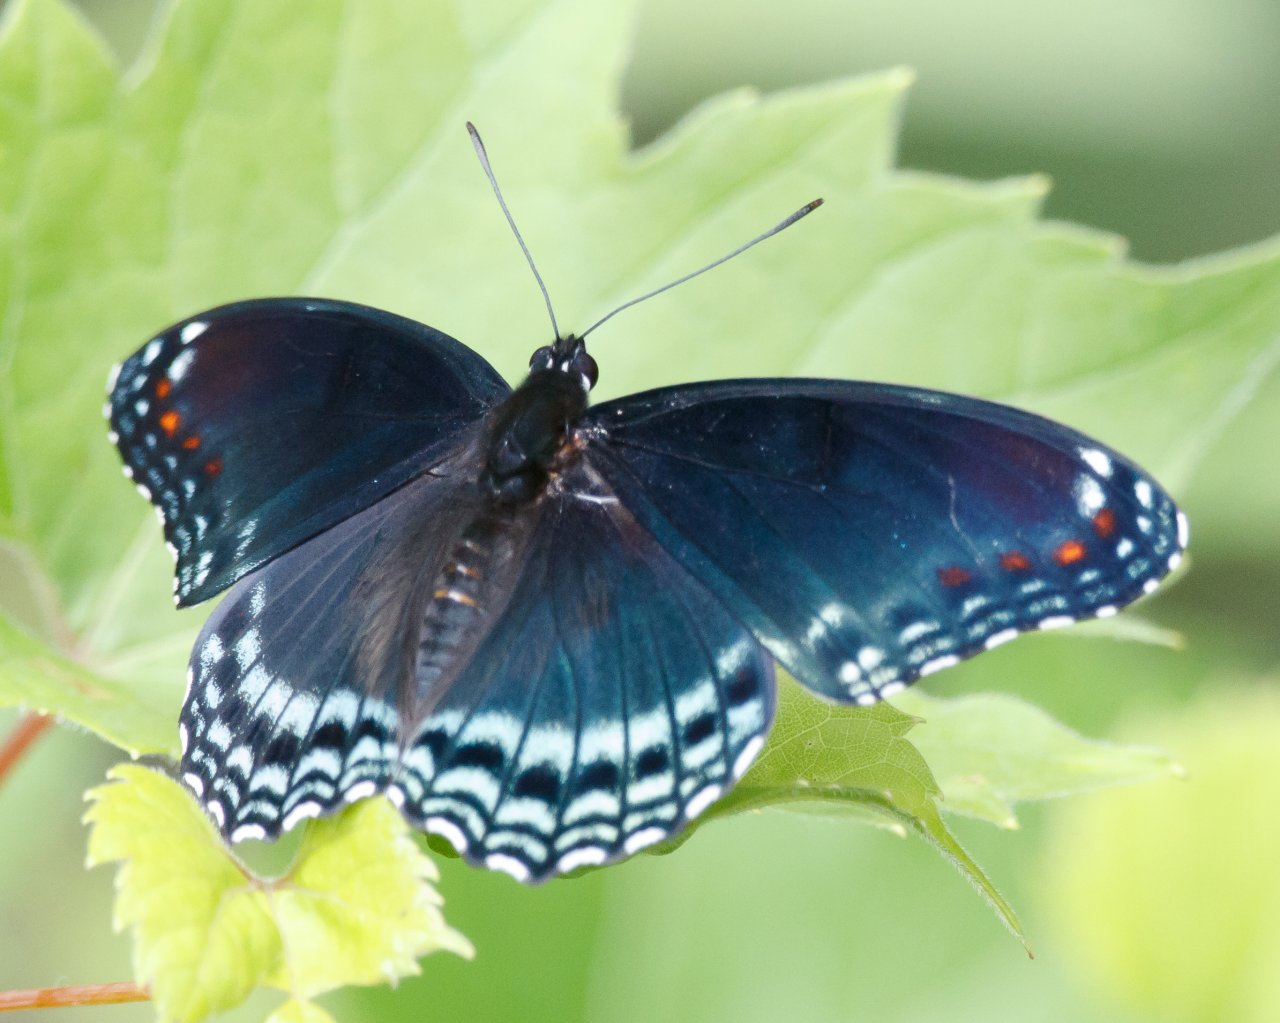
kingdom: Animalia
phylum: Arthropoda
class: Insecta
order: Lepidoptera
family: Nymphalidae
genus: Limenitis
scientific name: Limenitis astyanax
